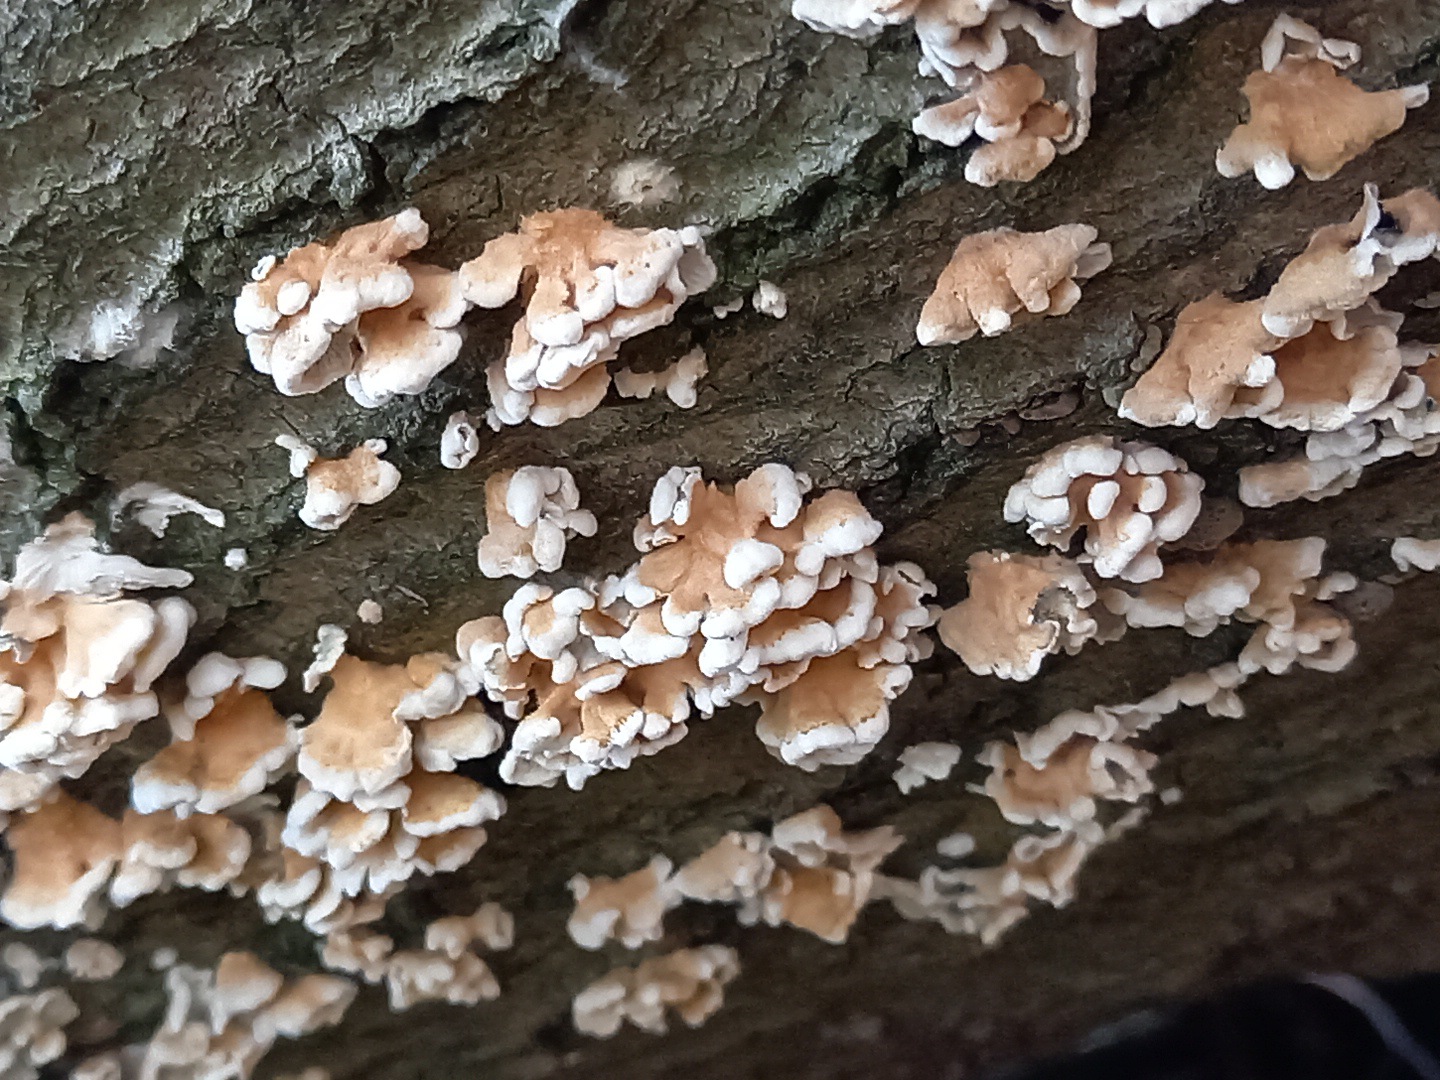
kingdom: Fungi
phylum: Basidiomycota
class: Agaricomycetes
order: Amylocorticiales
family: Amylocorticiaceae
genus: Plicaturopsis
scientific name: Plicaturopsis crispa
